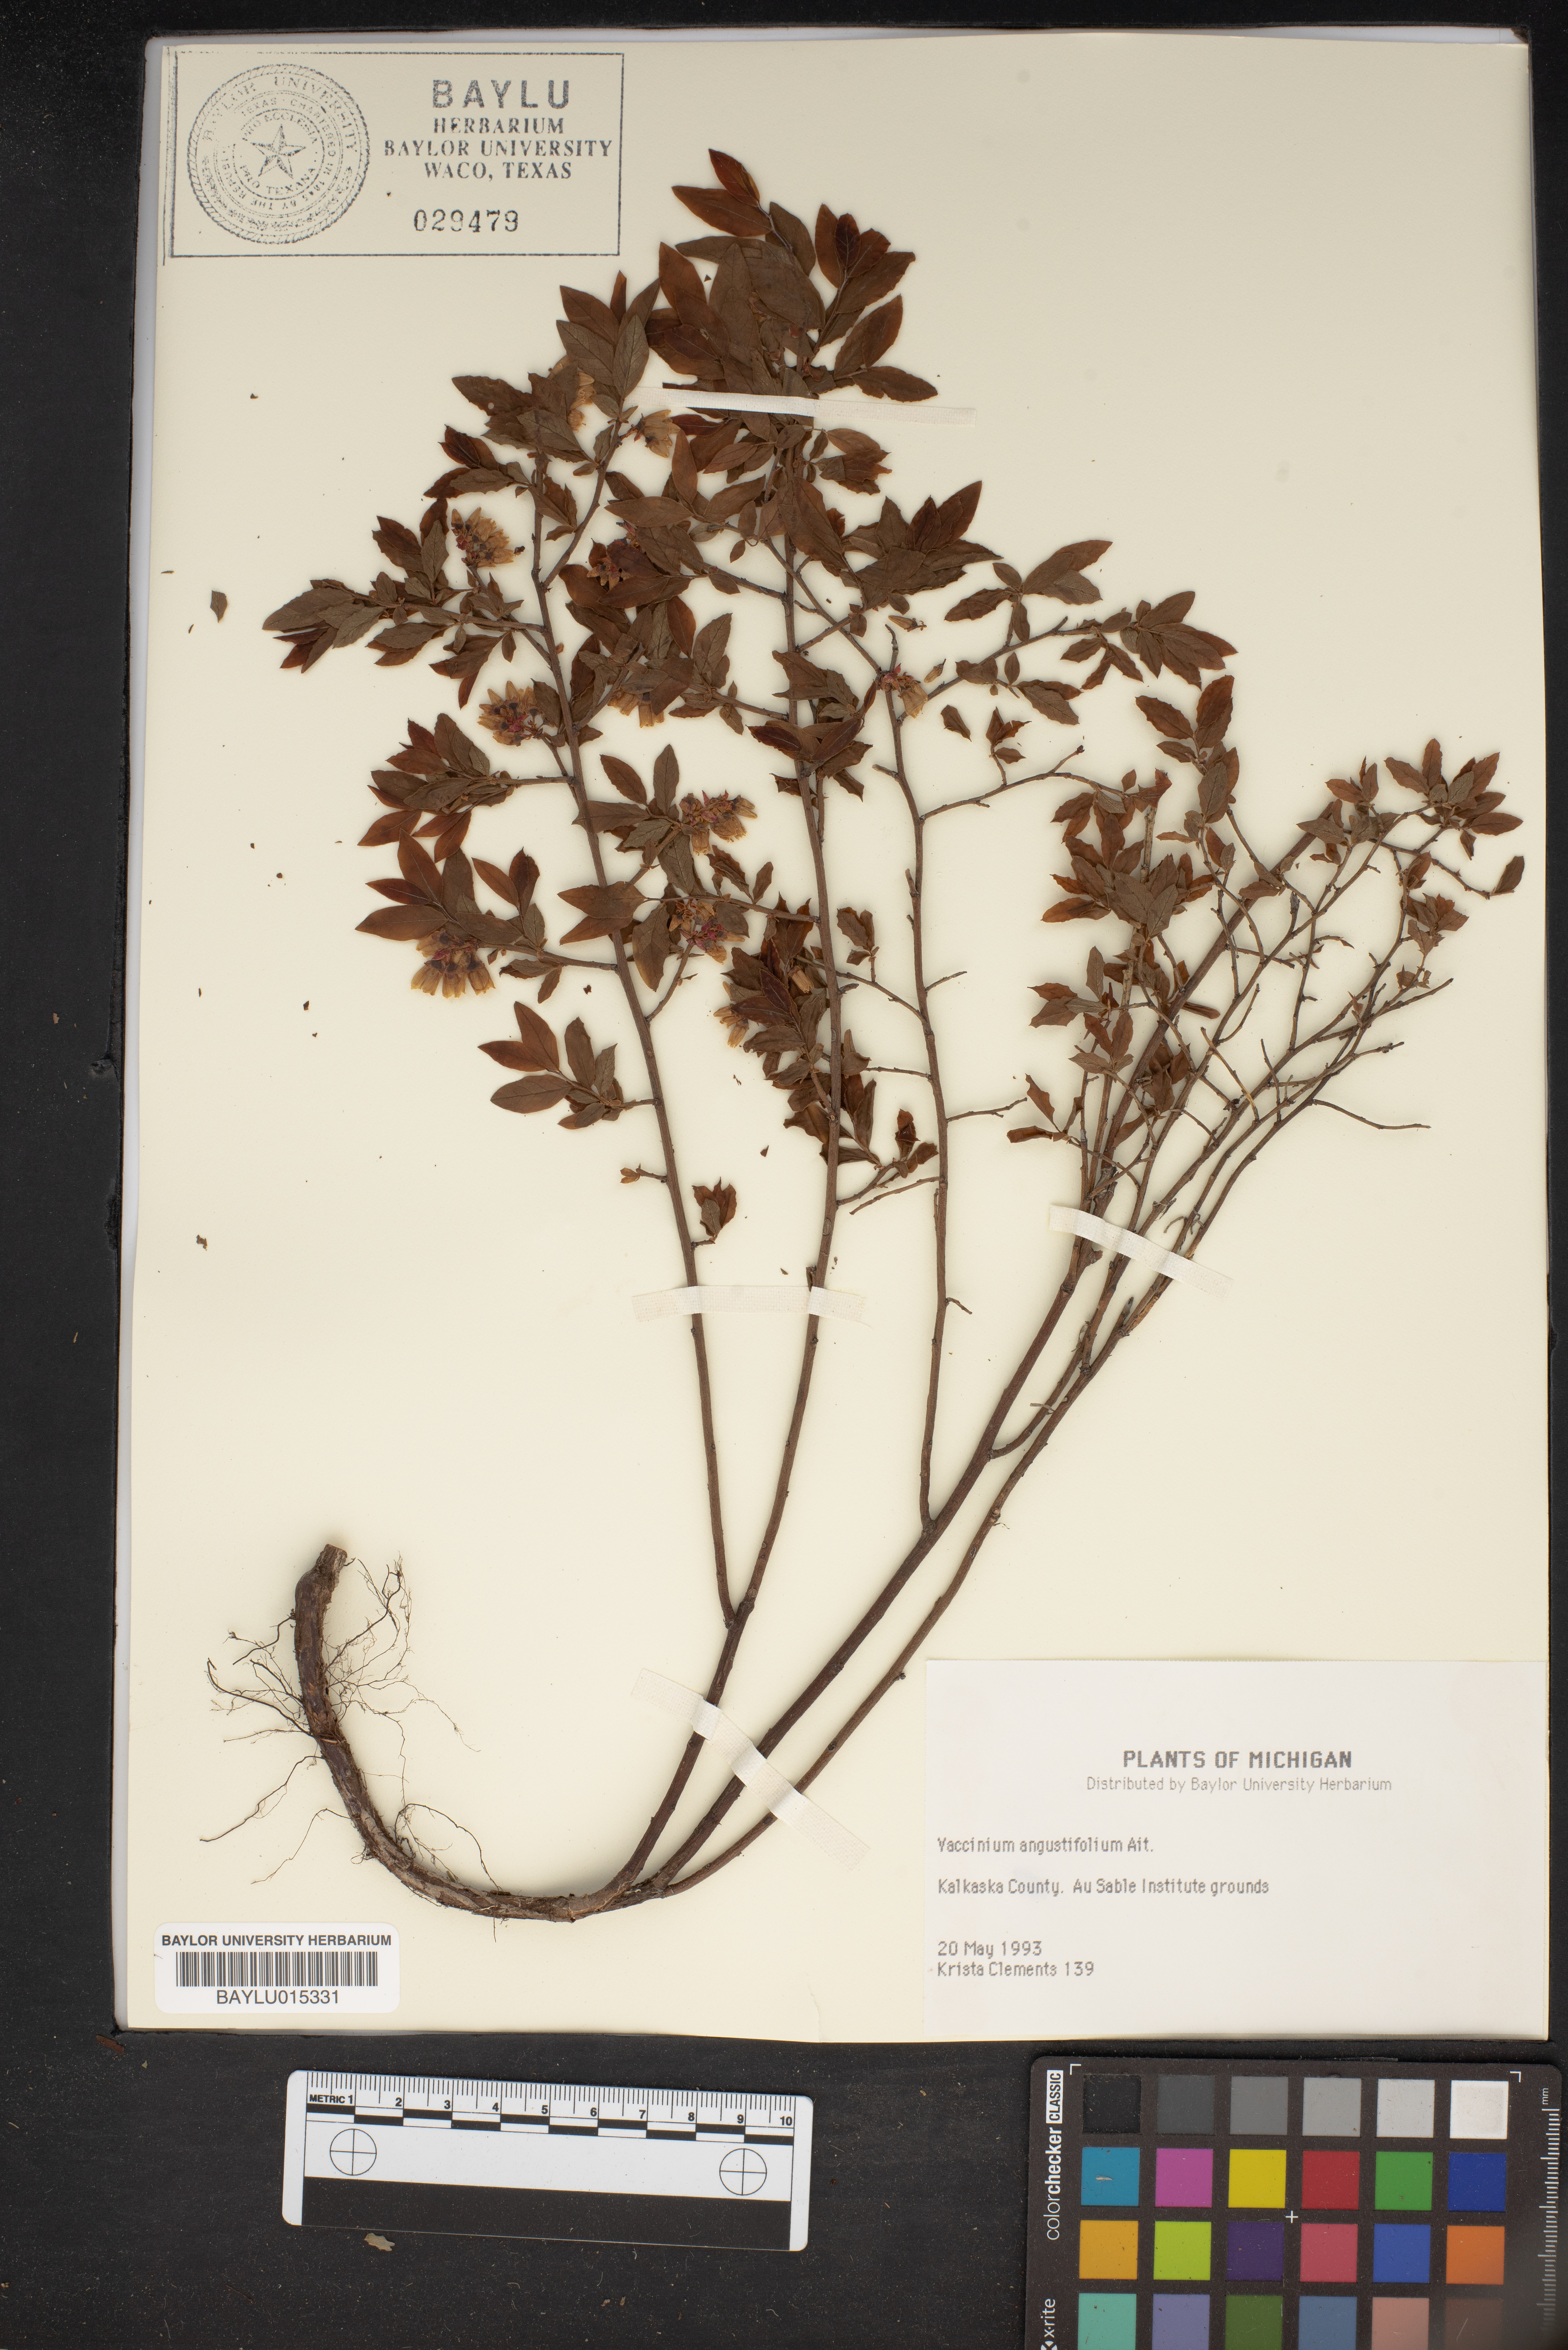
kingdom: Plantae
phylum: Tracheophyta
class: Magnoliopsida
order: Ericales
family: Ericaceae
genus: Vaccinium
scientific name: Vaccinium angustifolium
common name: Early lowbush blueberry
